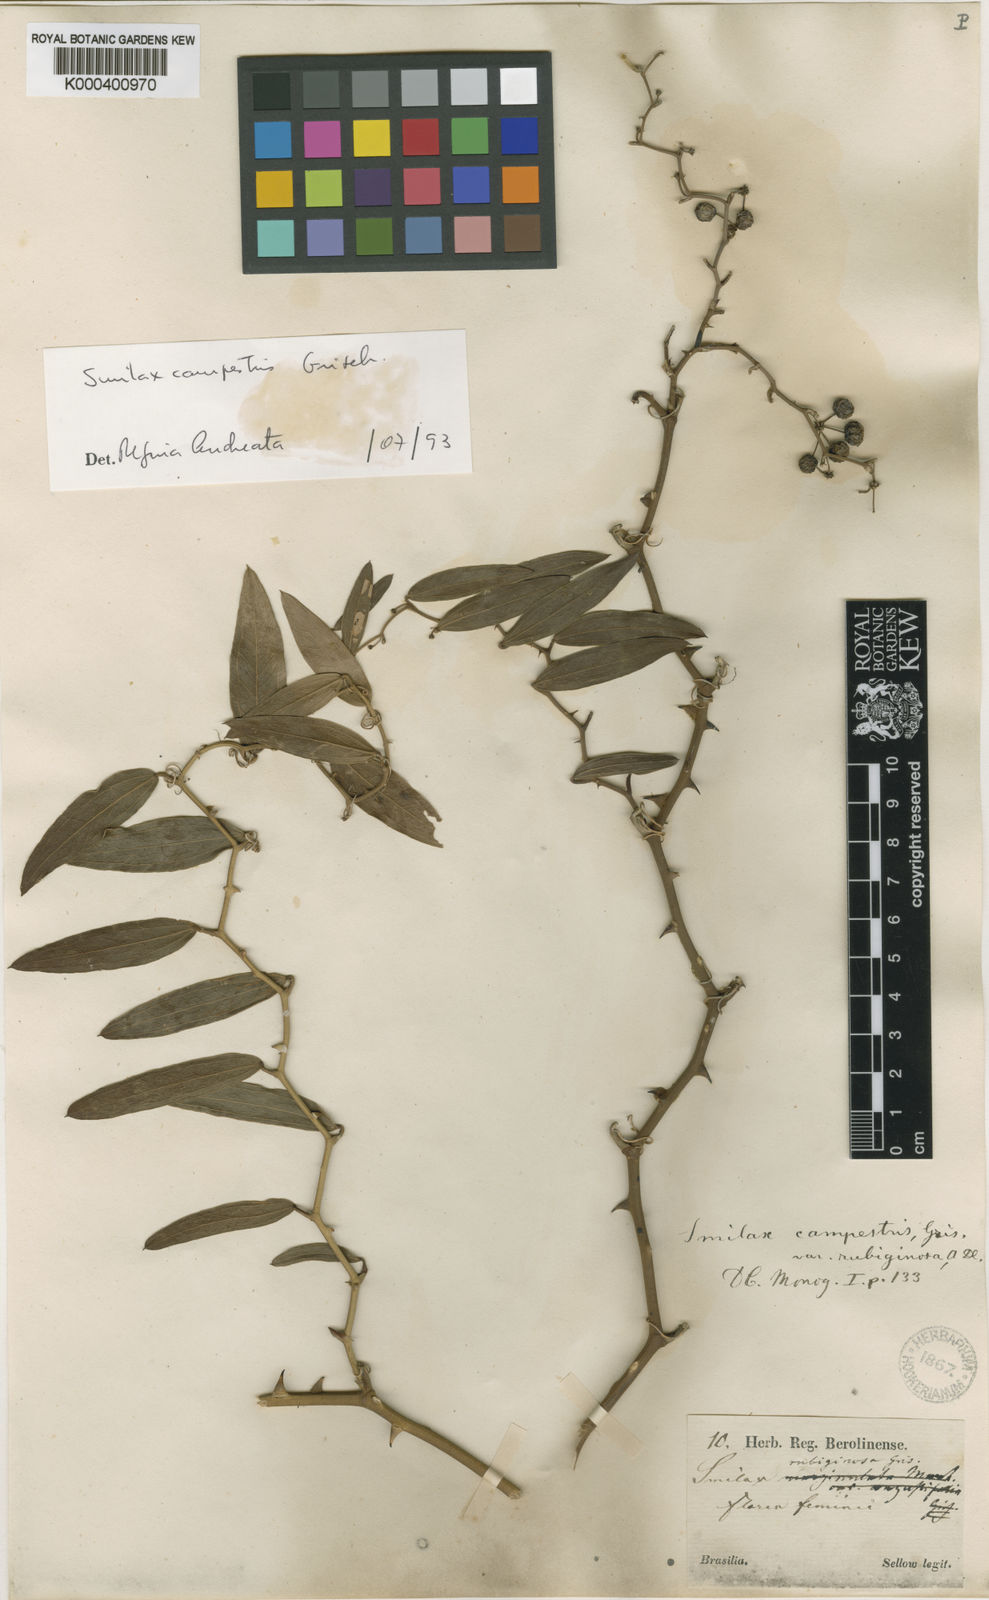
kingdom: Plantae
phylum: Tracheophyta
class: Liliopsida
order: Liliales
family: Smilacaceae
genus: Smilax
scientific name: Smilax campestris
